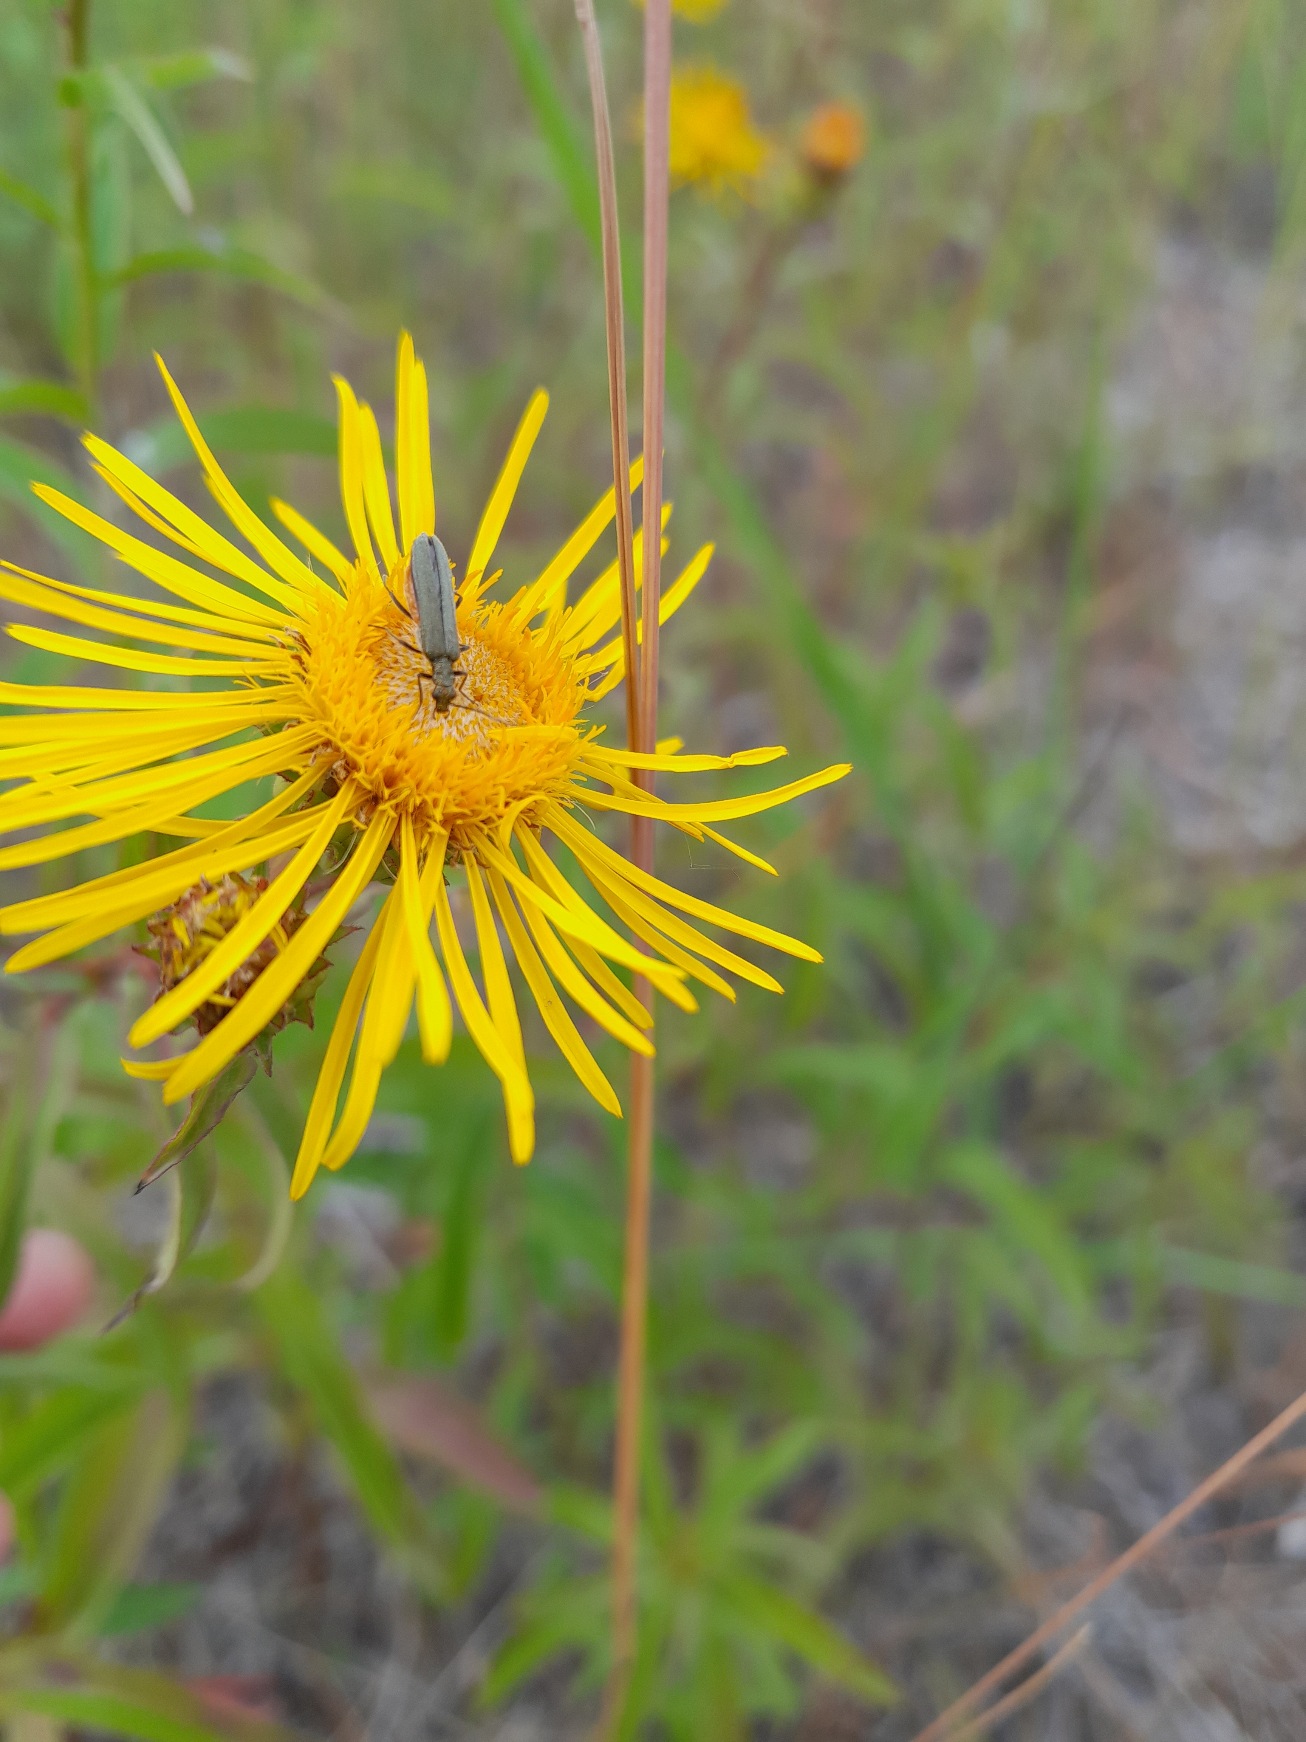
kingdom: Plantae
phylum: Tracheophyta
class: Magnoliopsida
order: Asterales
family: Asteraceae
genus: Pentanema
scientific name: Pentanema salicinum
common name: Pile-alant
